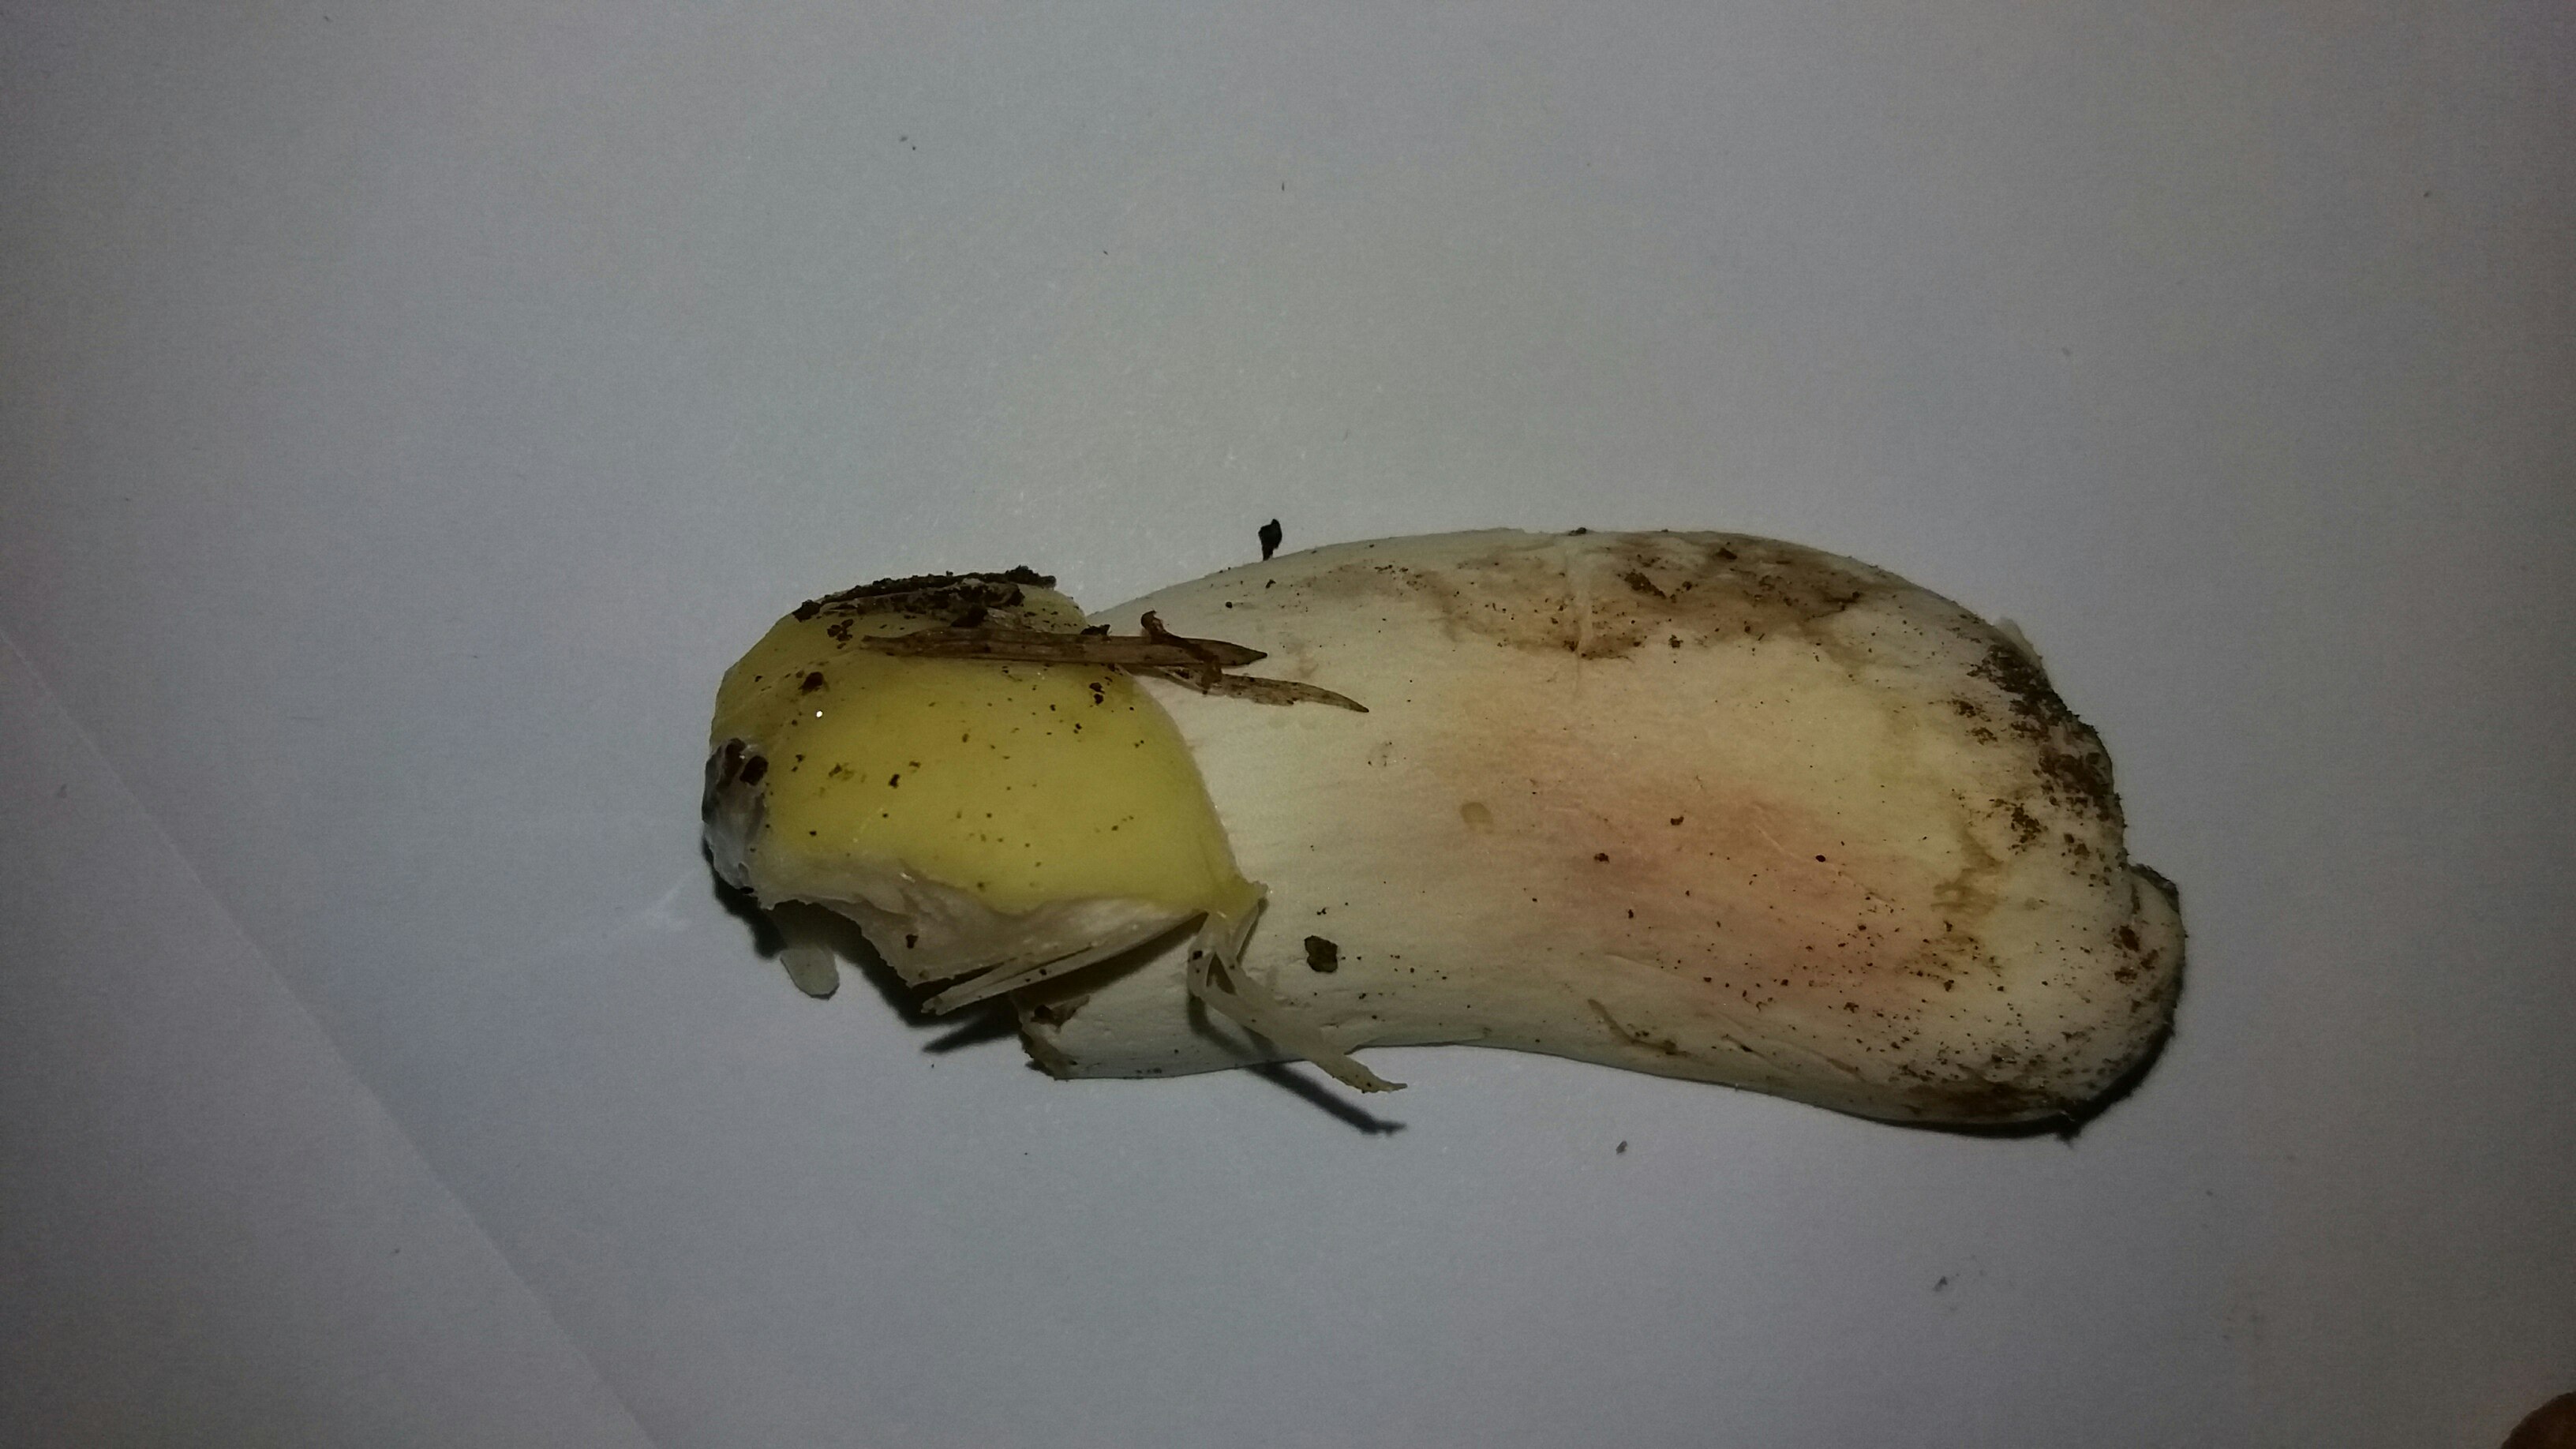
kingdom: Fungi
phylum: Basidiomycota
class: Agaricomycetes
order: Russulales
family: Russulaceae
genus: Russula
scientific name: Russula violeipes
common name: ferskengul skørhat
